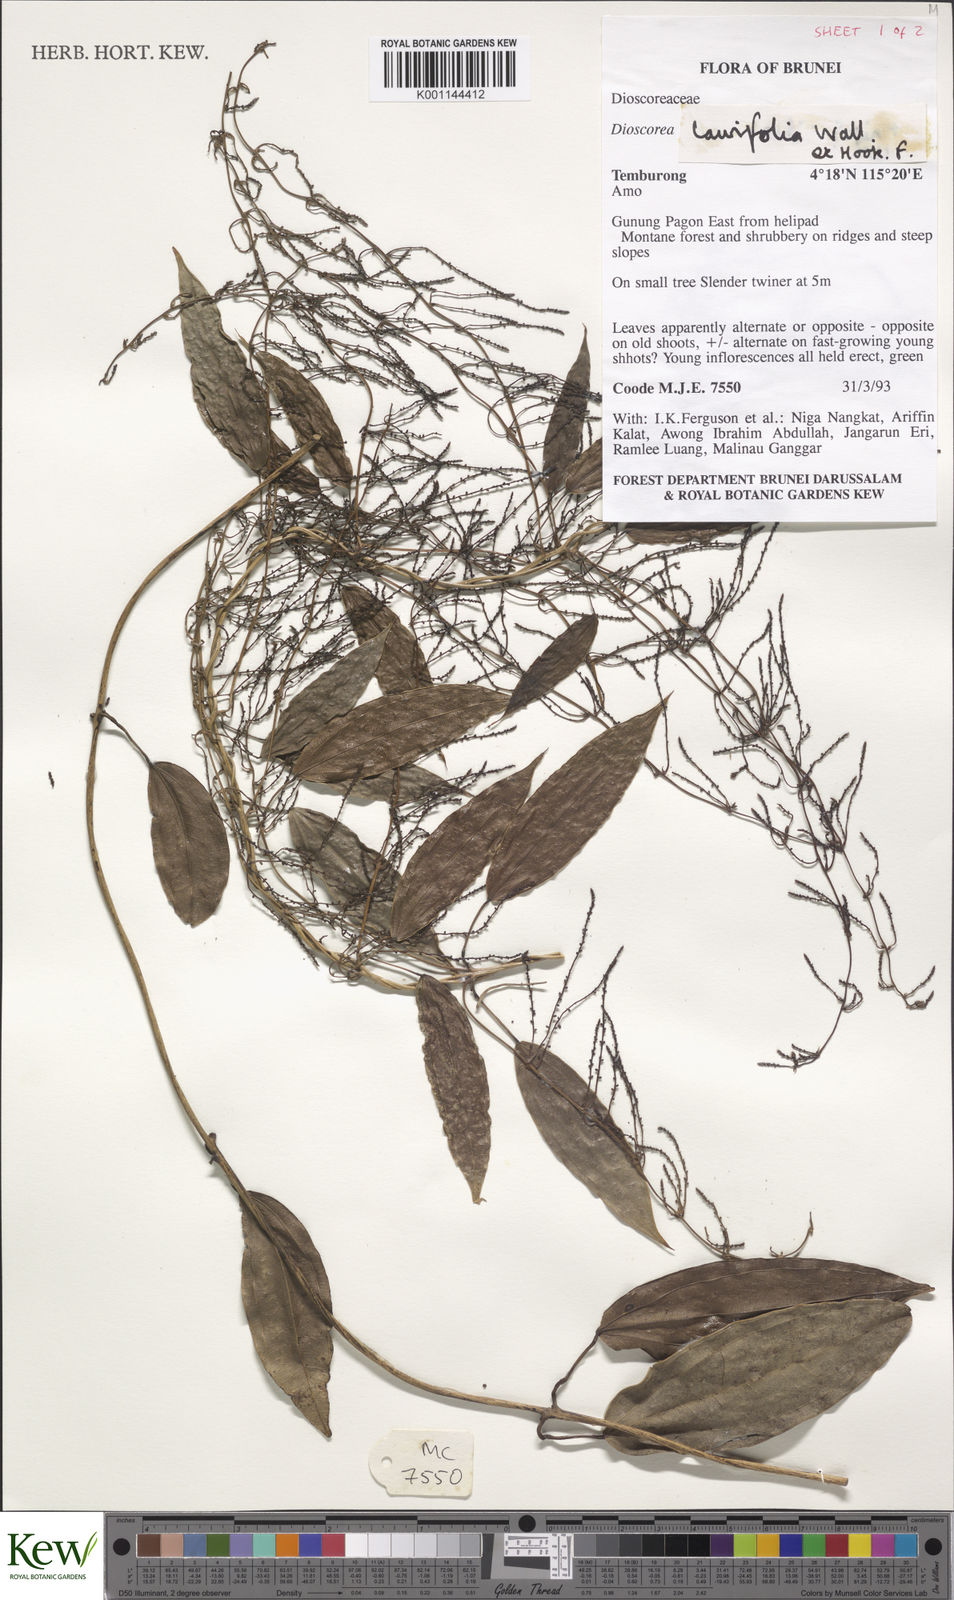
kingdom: Plantae
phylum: Tracheophyta
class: Liliopsida
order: Dioscoreales
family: Dioscoreaceae
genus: Dioscorea
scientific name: Dioscorea laurifolia
